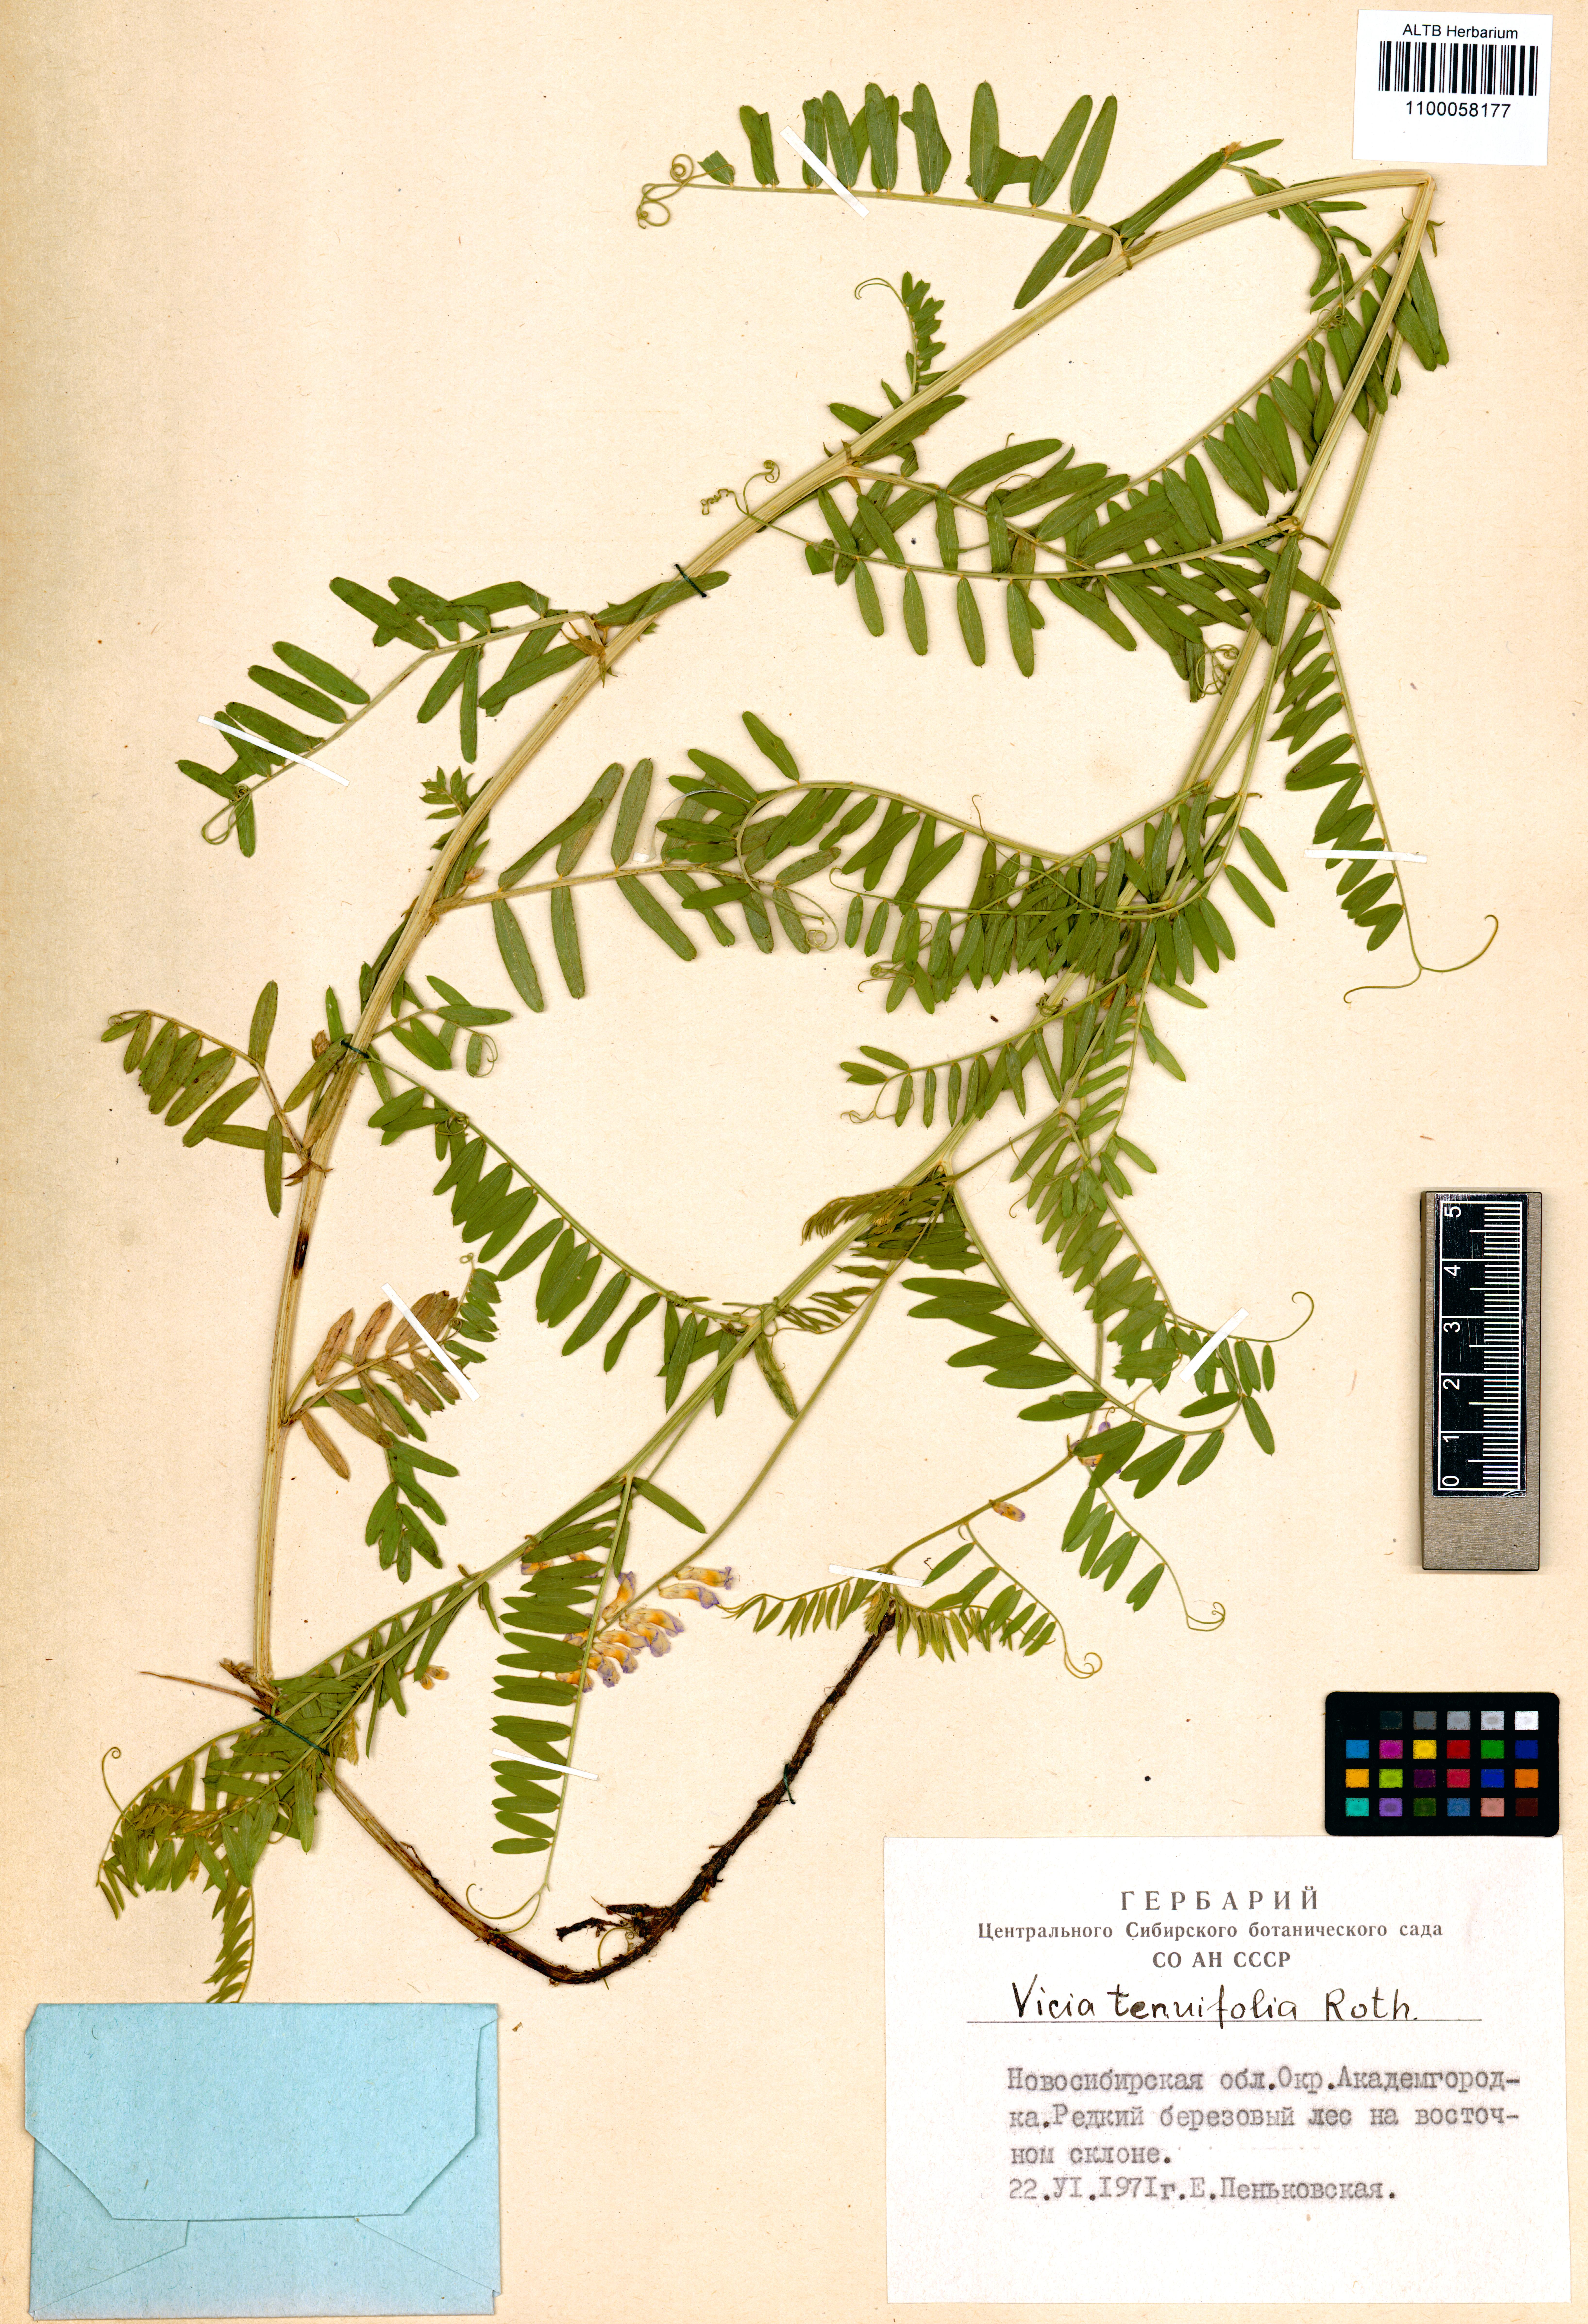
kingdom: Plantae
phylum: Tracheophyta
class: Magnoliopsida
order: Fabales
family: Fabaceae
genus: Vicia
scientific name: Vicia tenuifolia
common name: Fine-leaved vetch
